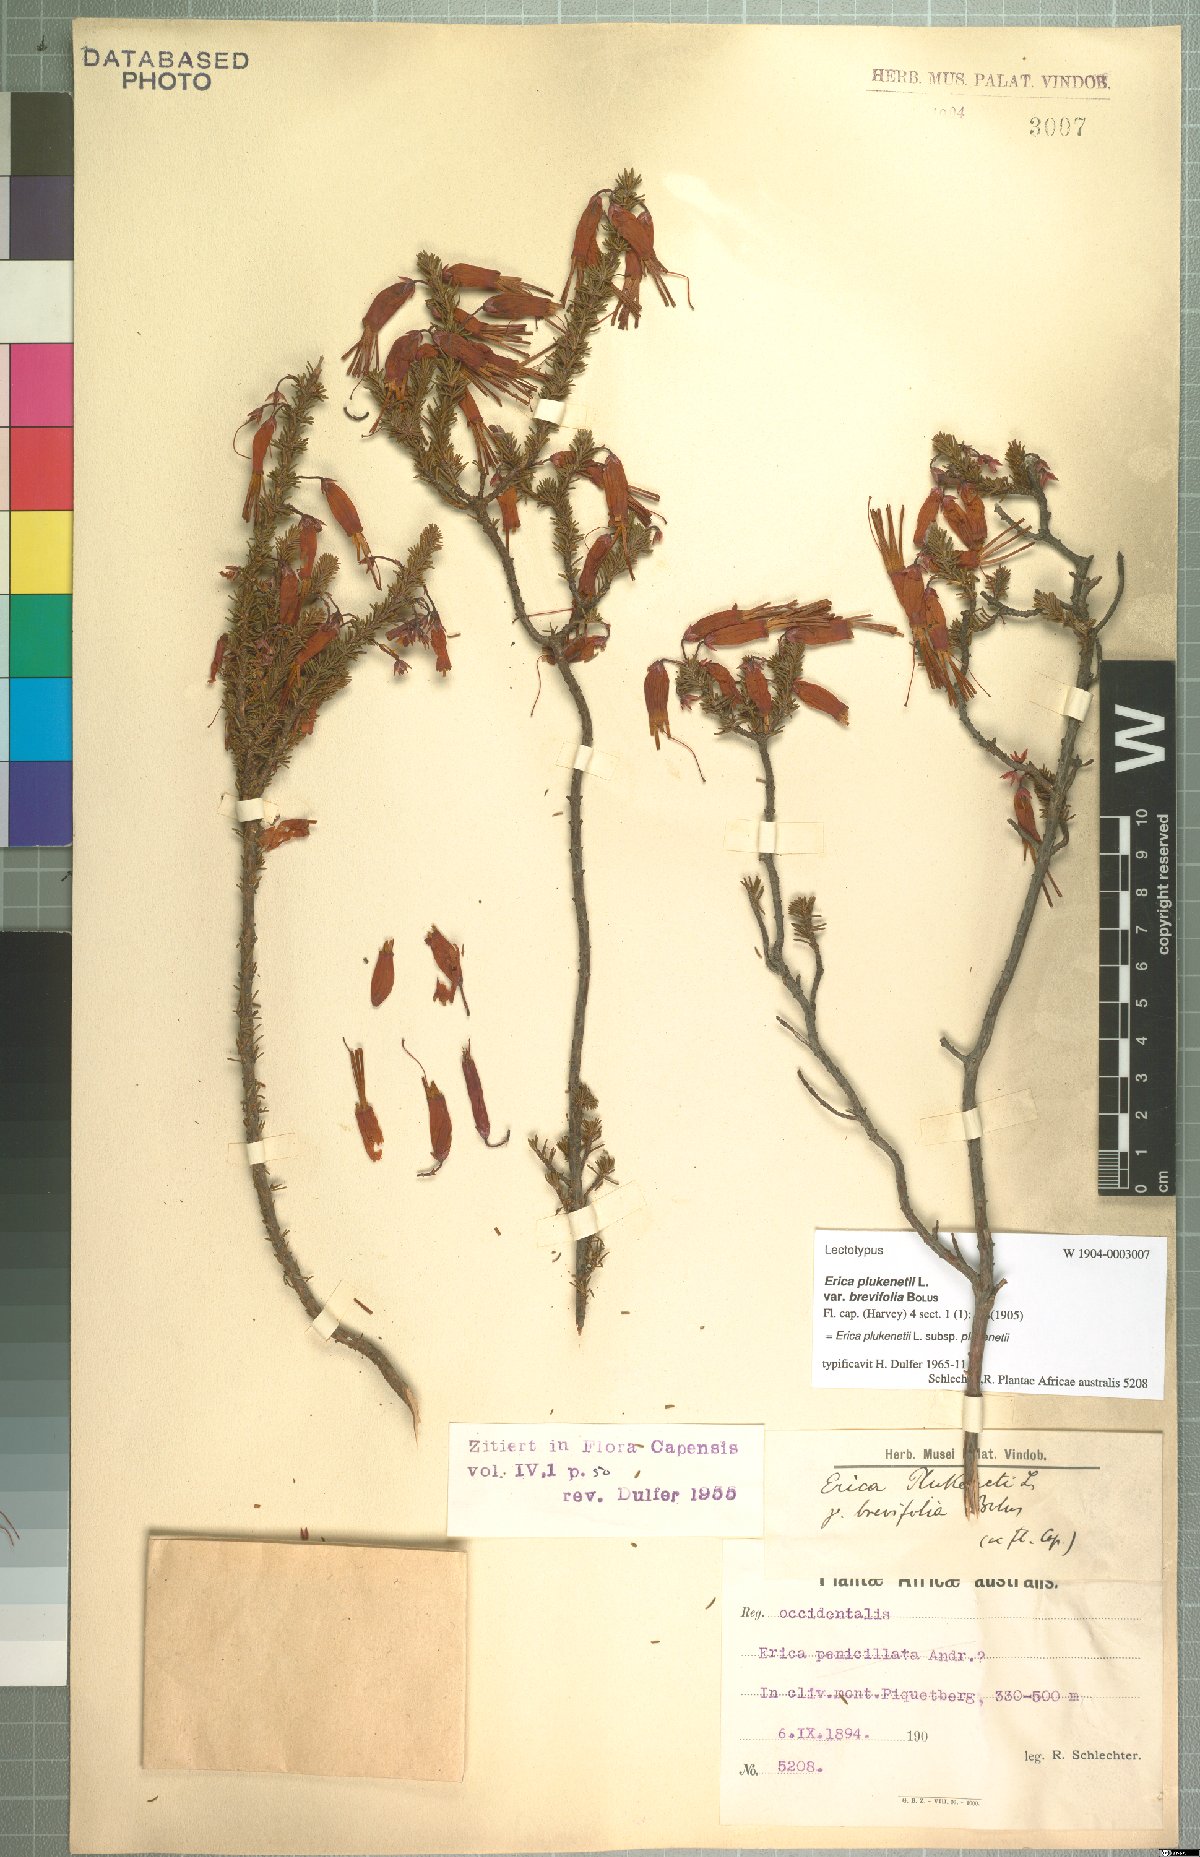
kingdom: Plantae
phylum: Tracheophyta
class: Magnoliopsida
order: Ericales
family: Ericaceae
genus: Erica
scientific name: Erica plukenetii
